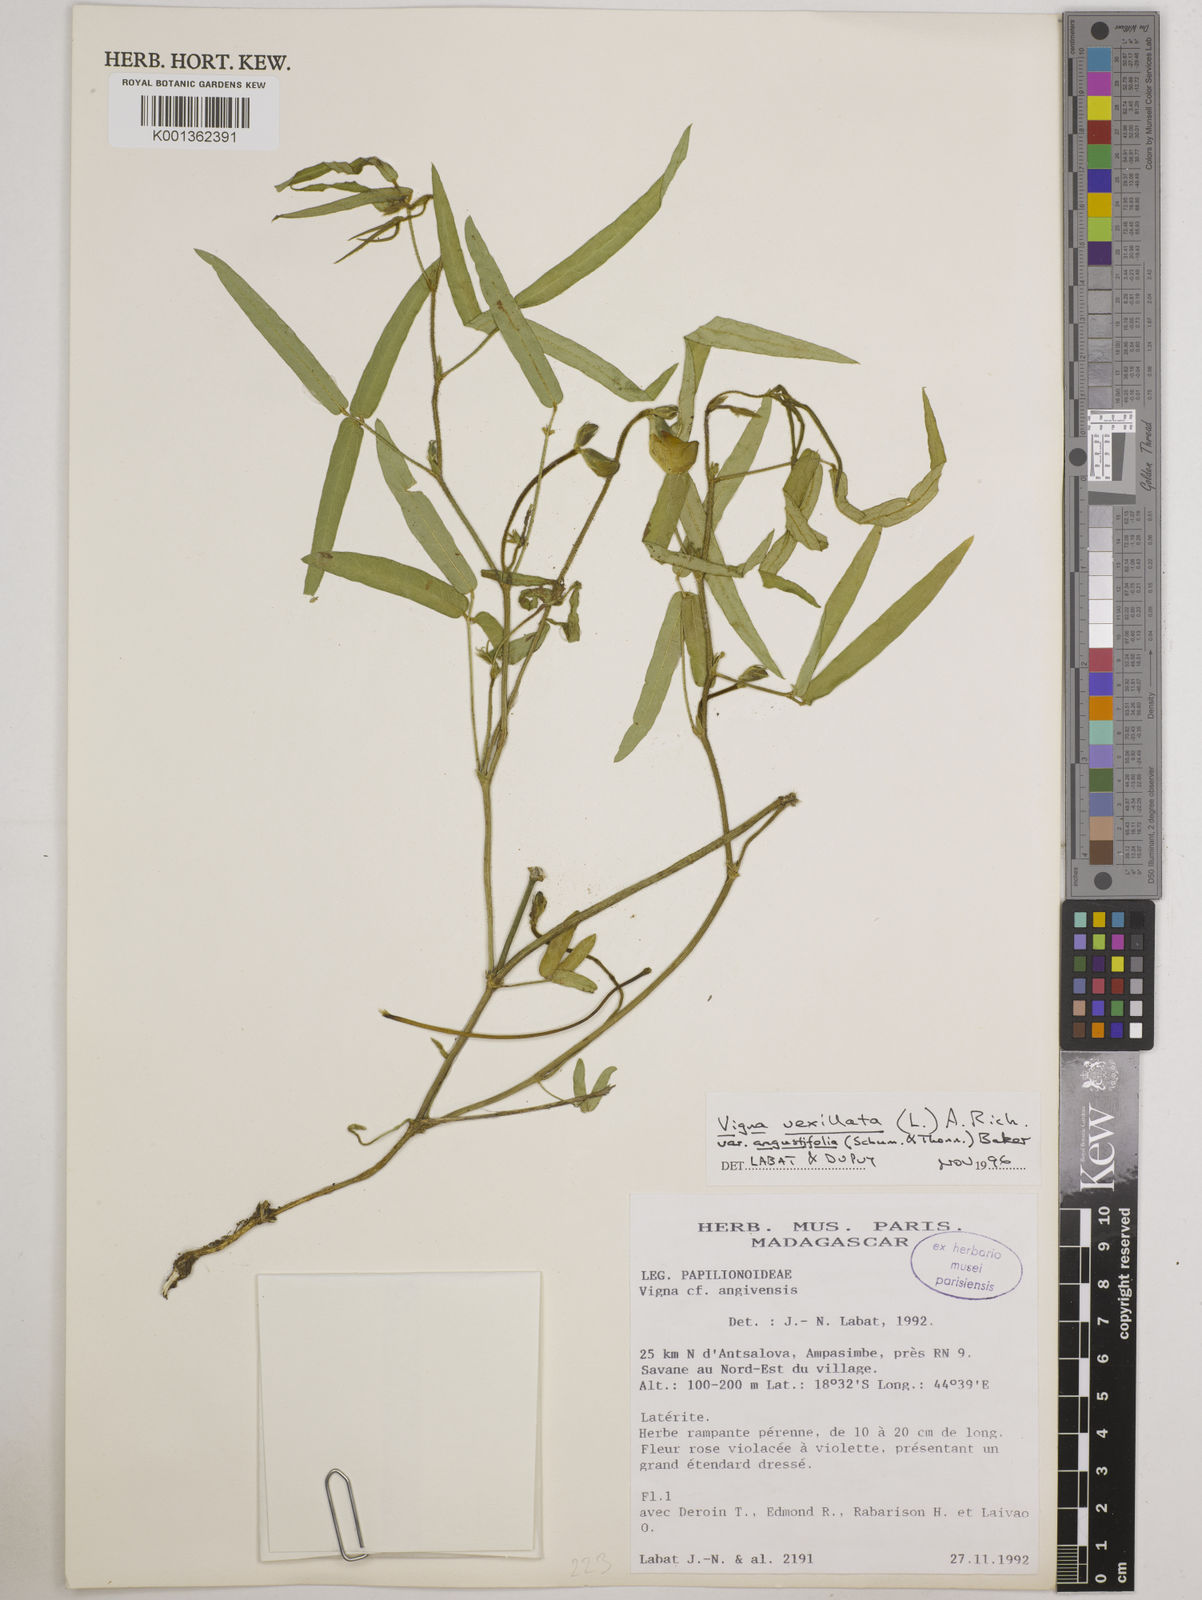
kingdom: Plantae
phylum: Tracheophyta
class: Magnoliopsida
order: Fabales
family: Fabaceae
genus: Vigna
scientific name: Vigna vexillata
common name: Zombi pea
